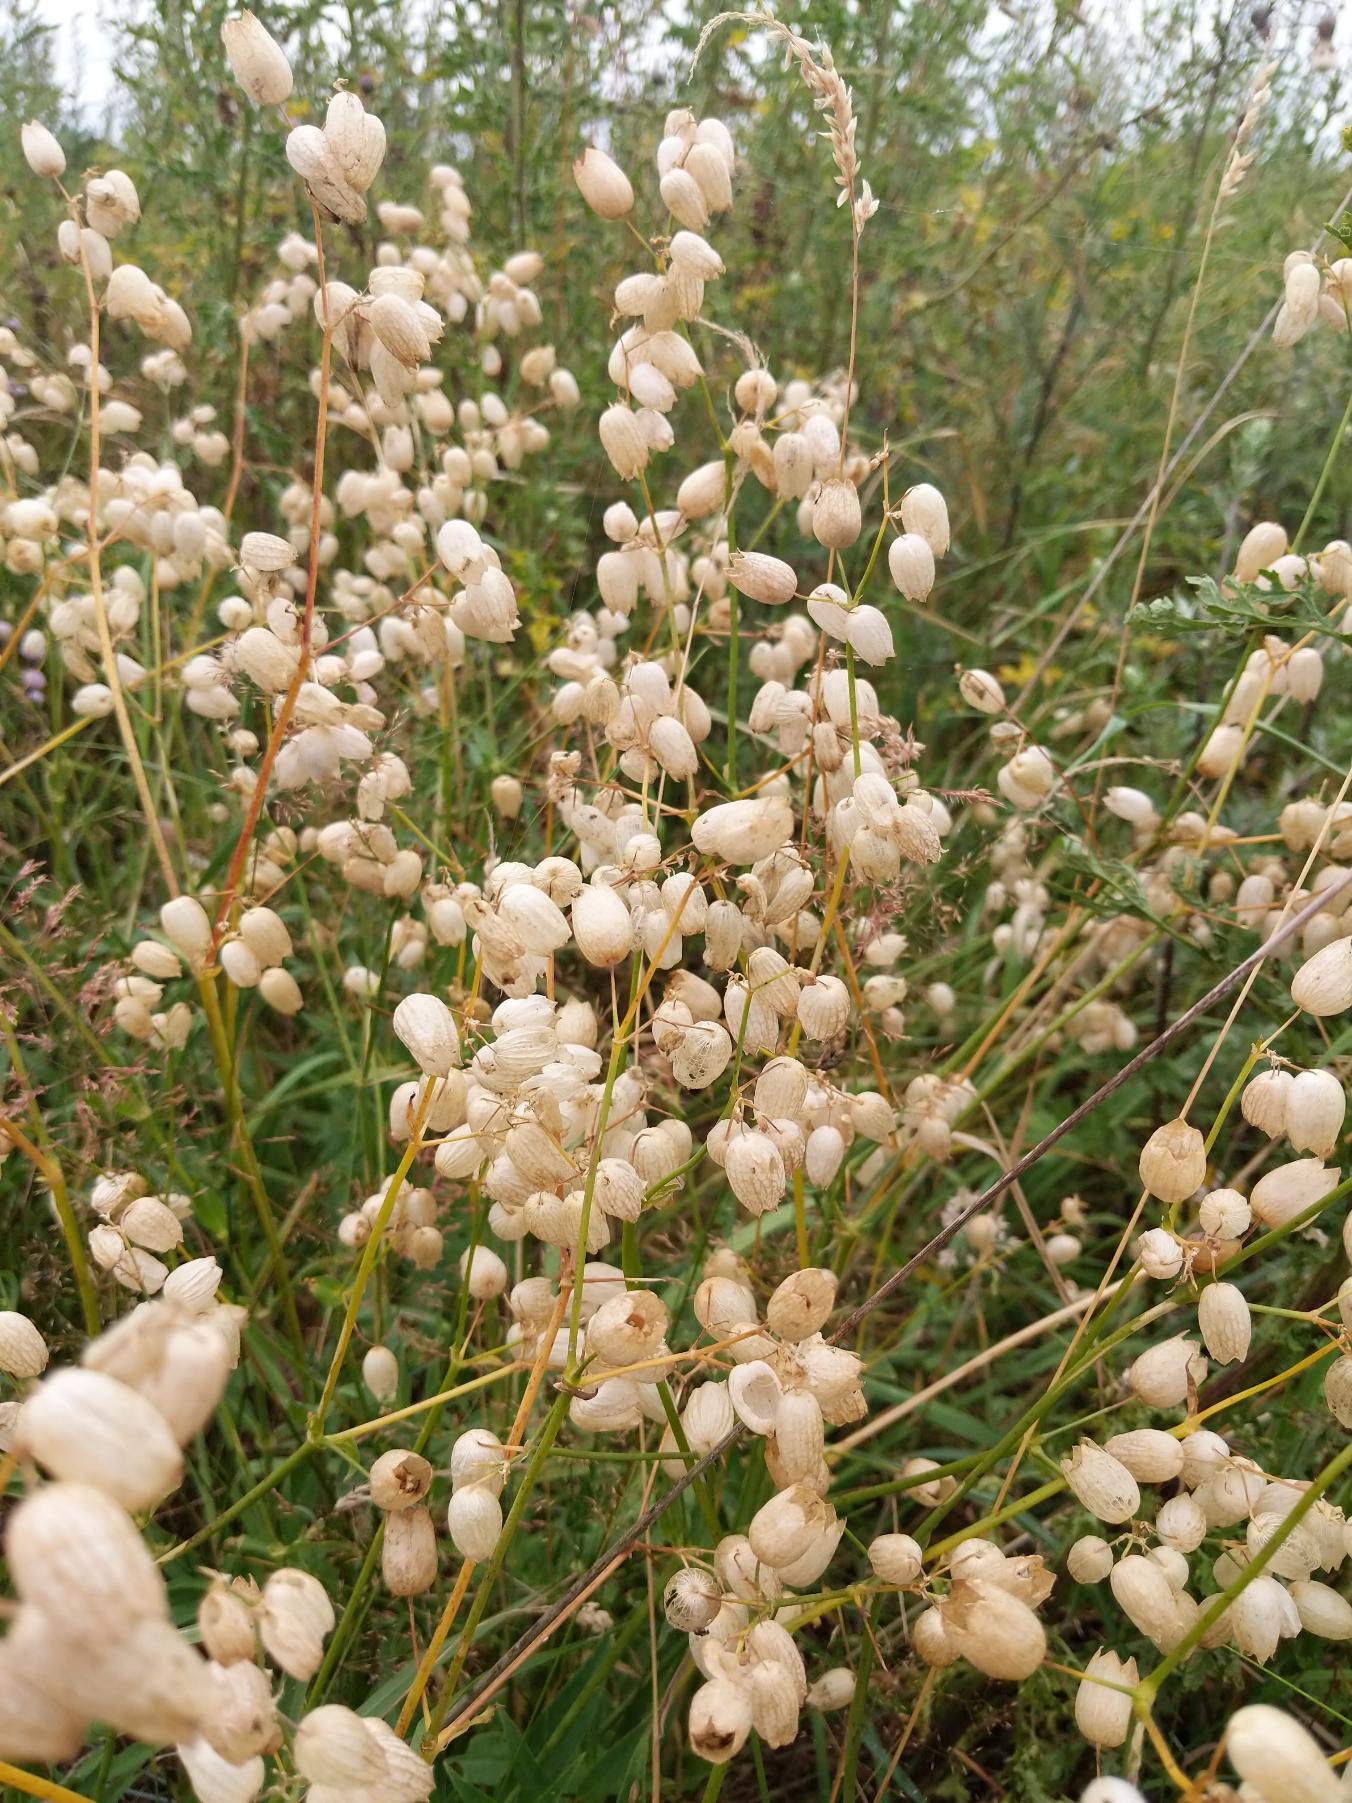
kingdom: Plantae
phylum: Tracheophyta
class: Magnoliopsida
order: Caryophyllales
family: Caryophyllaceae
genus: Silene
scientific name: Silene vulgaris
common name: Blæresmælde
